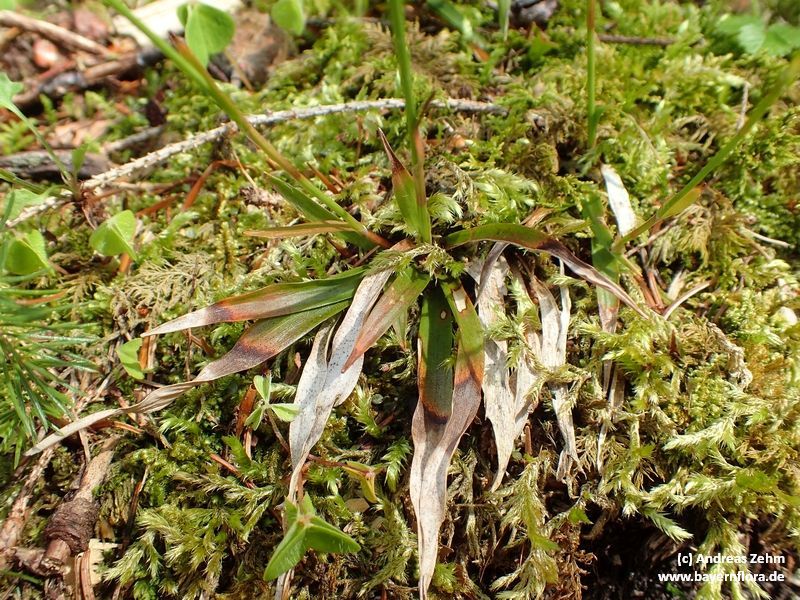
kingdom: Plantae
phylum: Tracheophyta
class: Liliopsida
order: Poales
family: Juncaceae
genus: Luzula
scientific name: Luzula luzulina
